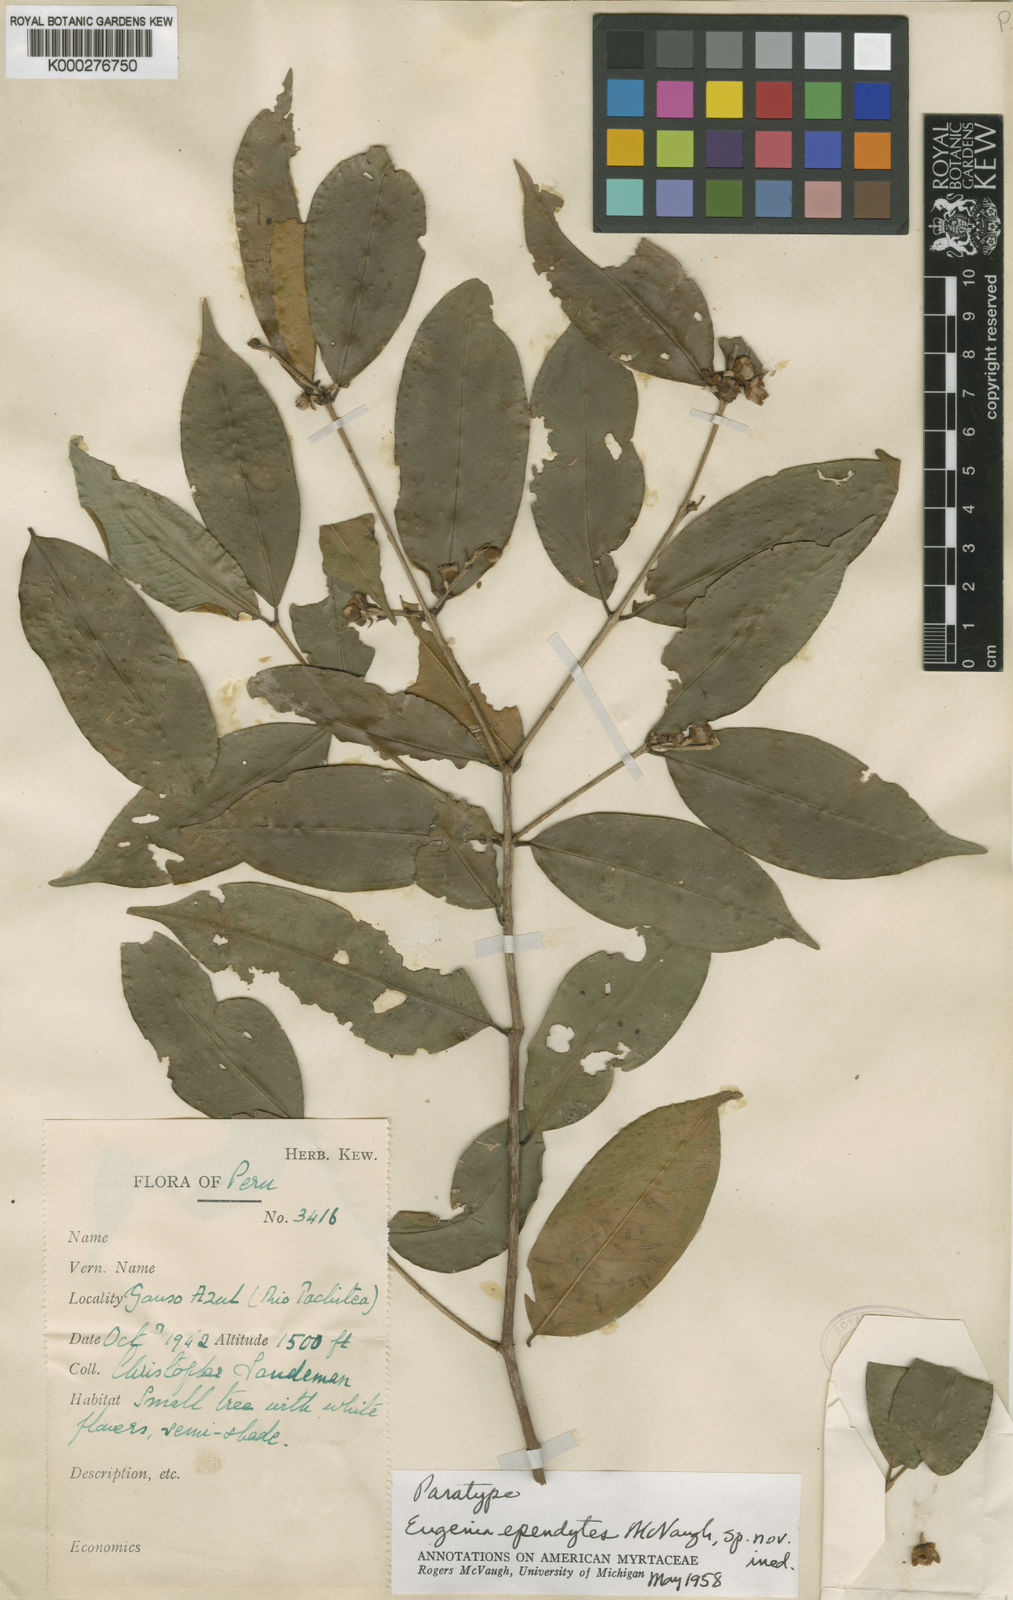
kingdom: Plantae
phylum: Tracheophyta
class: Magnoliopsida
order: Myrtales
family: Myrtaceae
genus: Eugenia
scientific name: Eugenia ependytes
